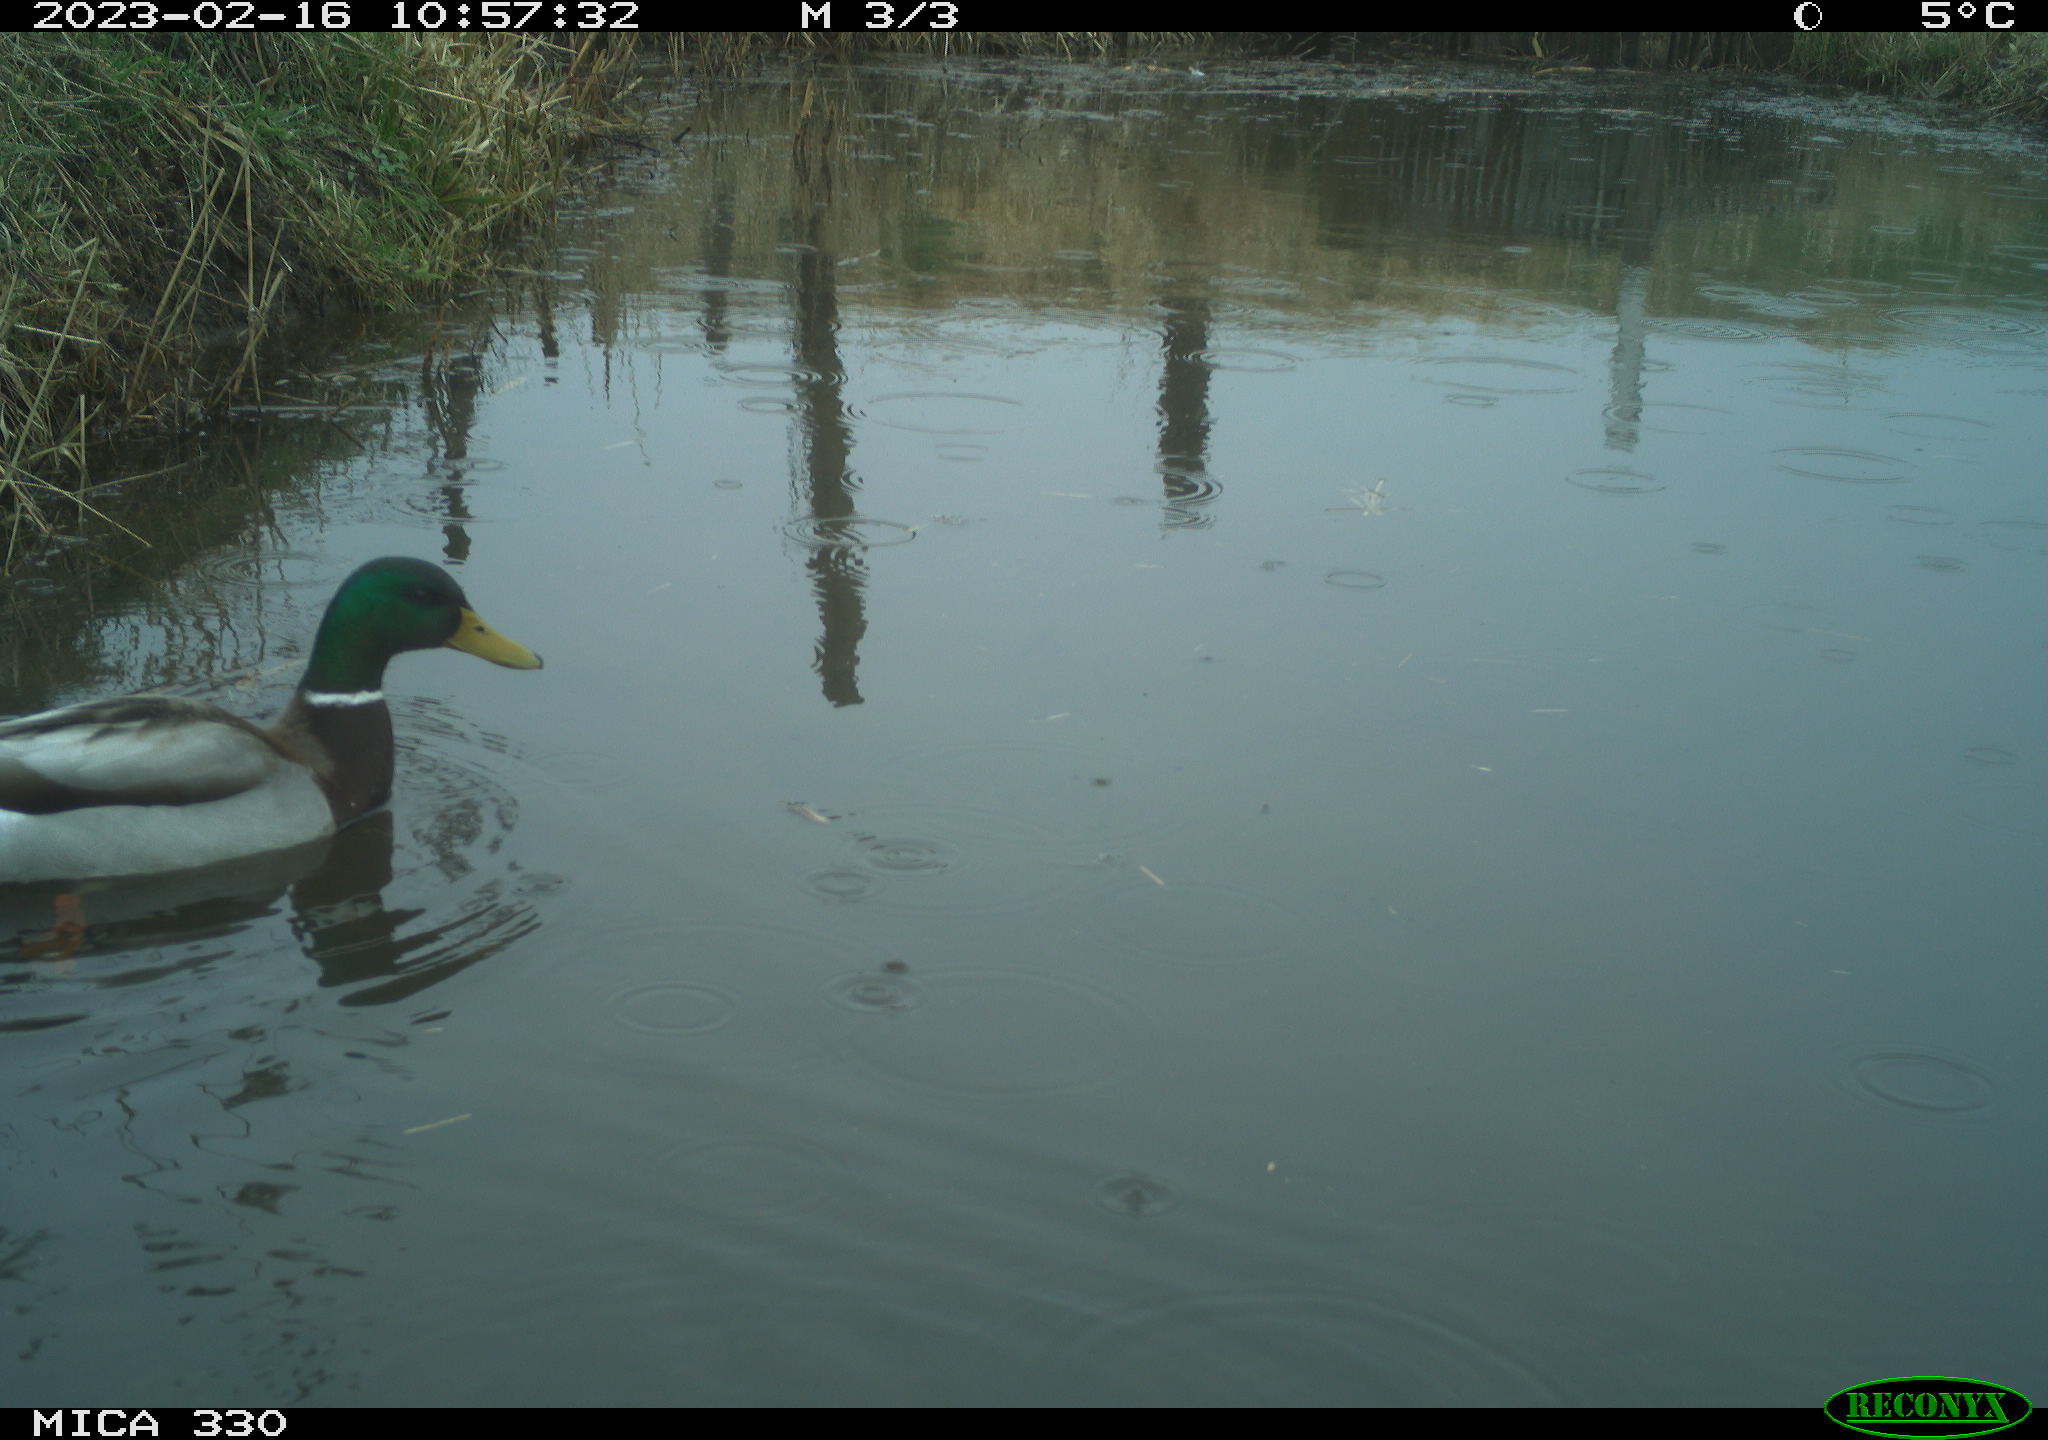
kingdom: Animalia
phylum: Chordata
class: Aves
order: Anseriformes
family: Anatidae
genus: Anas
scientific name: Anas
